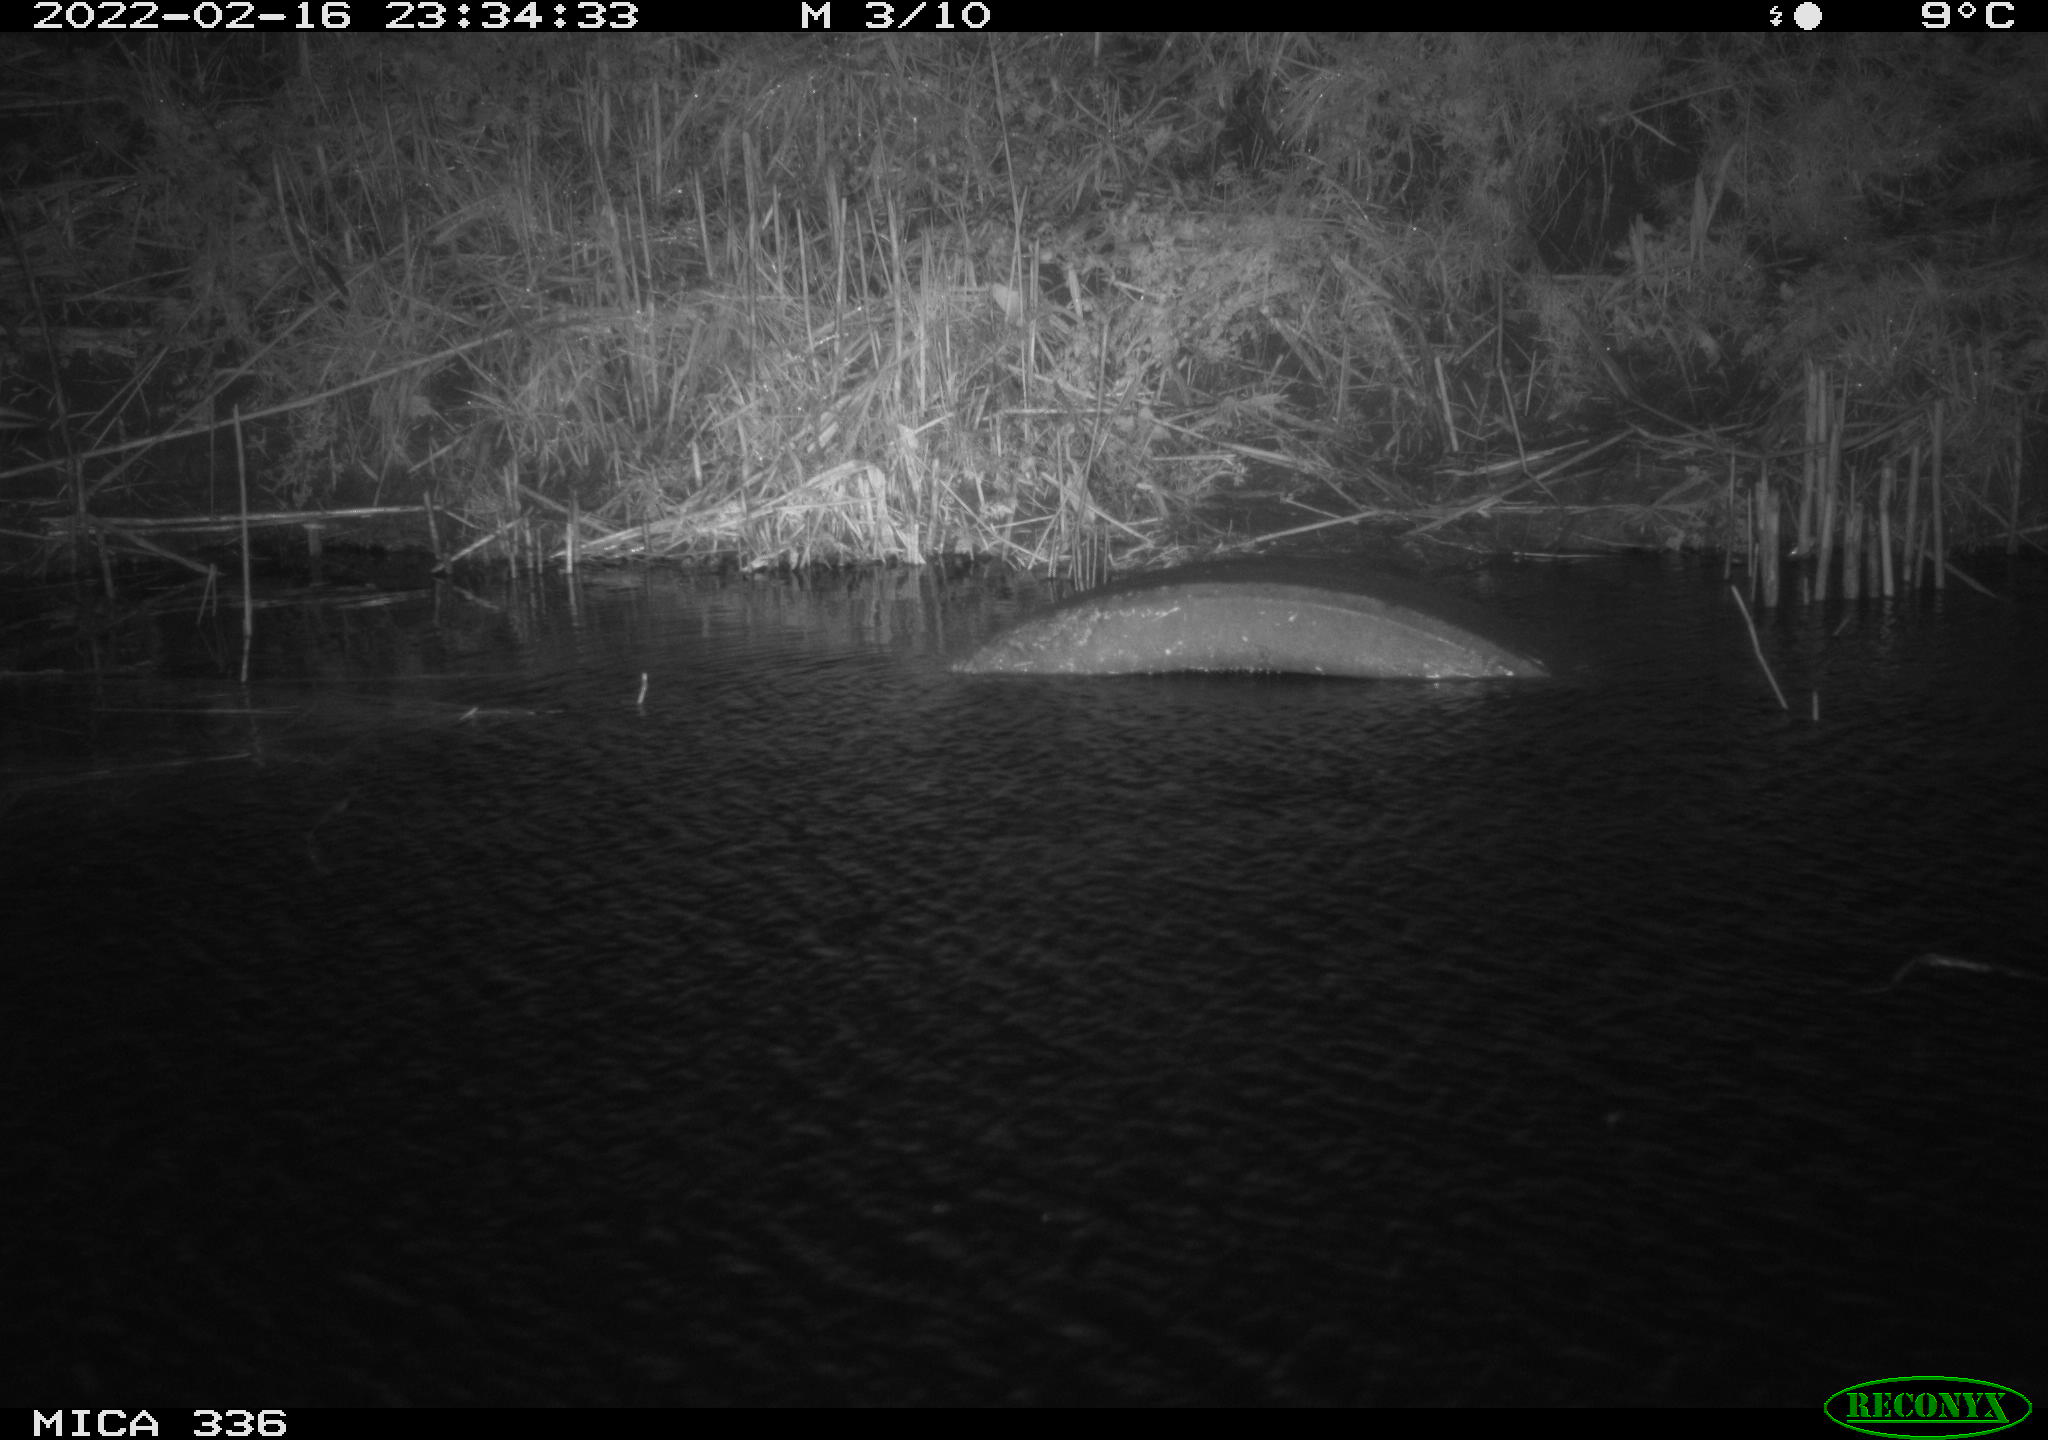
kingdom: Animalia
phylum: Chordata
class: Aves
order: Pelecaniformes
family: Ardeidae
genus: Ardea
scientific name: Ardea cinerea
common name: Grey heron
